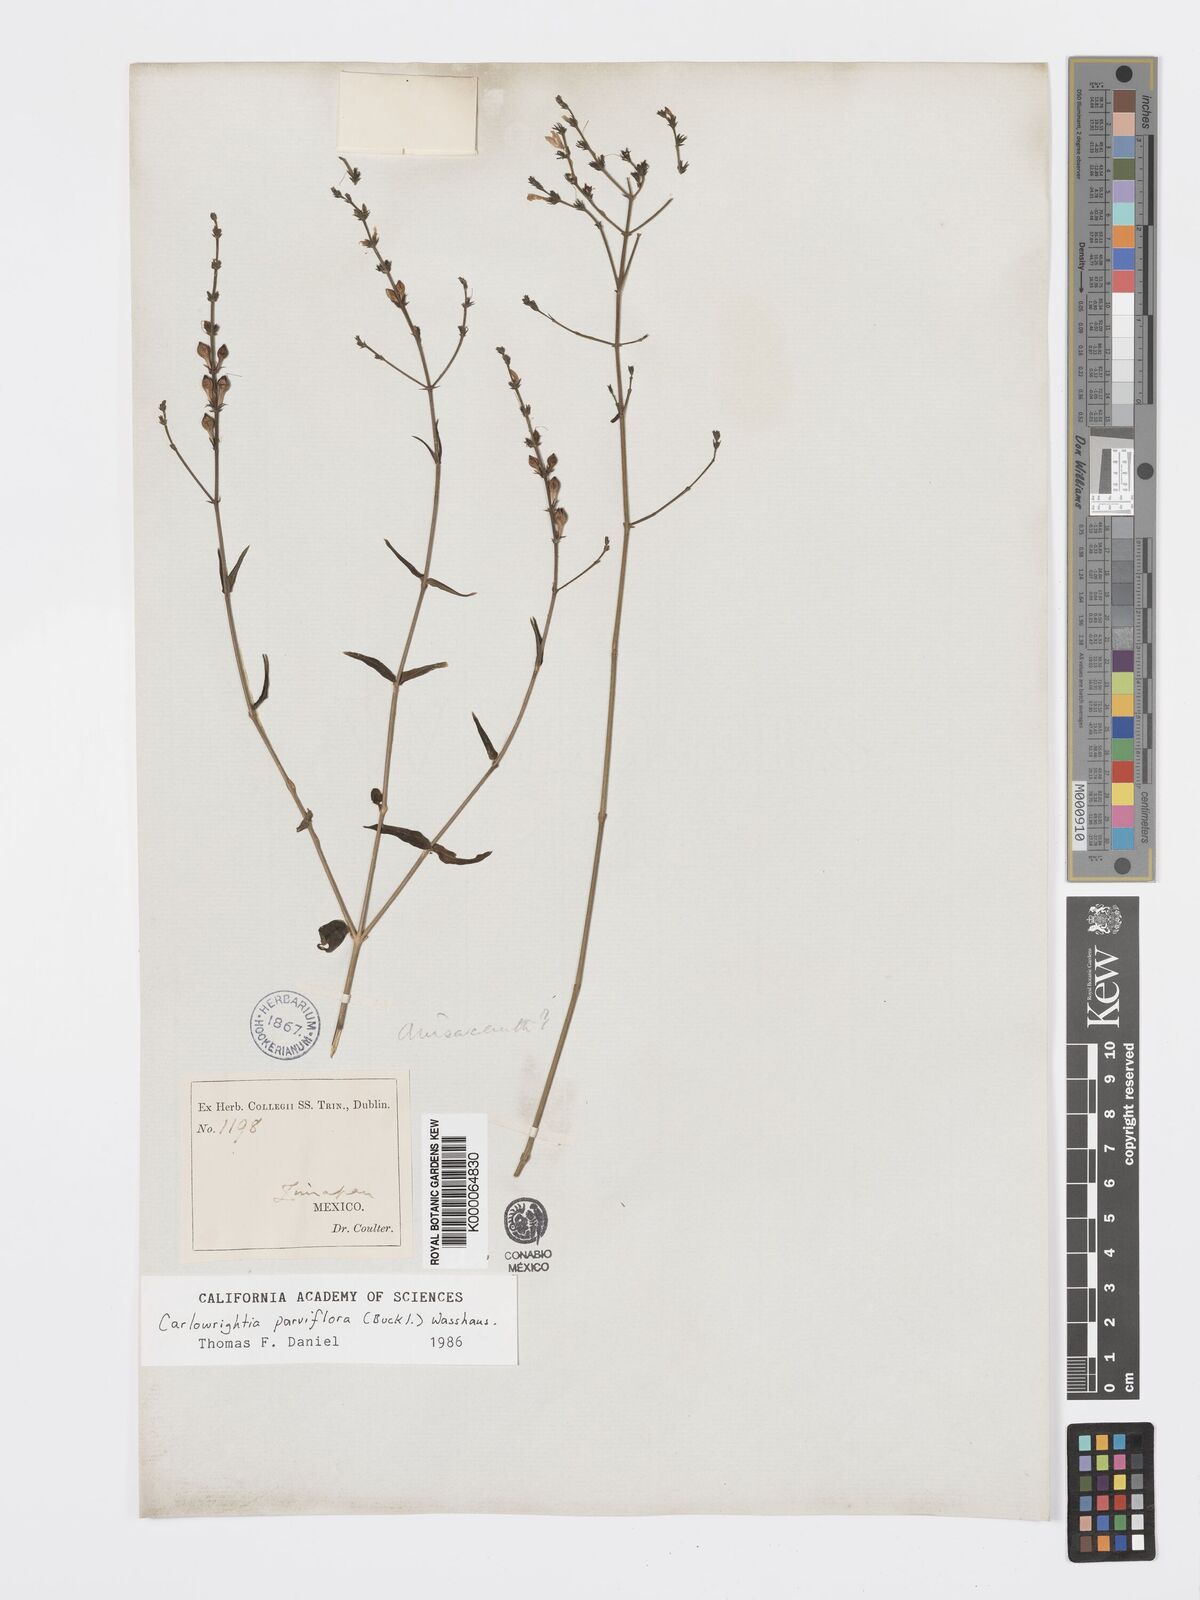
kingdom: Plantae
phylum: Tracheophyta
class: Magnoliopsida
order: Lamiales
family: Acanthaceae
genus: Carlowrightia
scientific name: Carlowrightia parviflora
